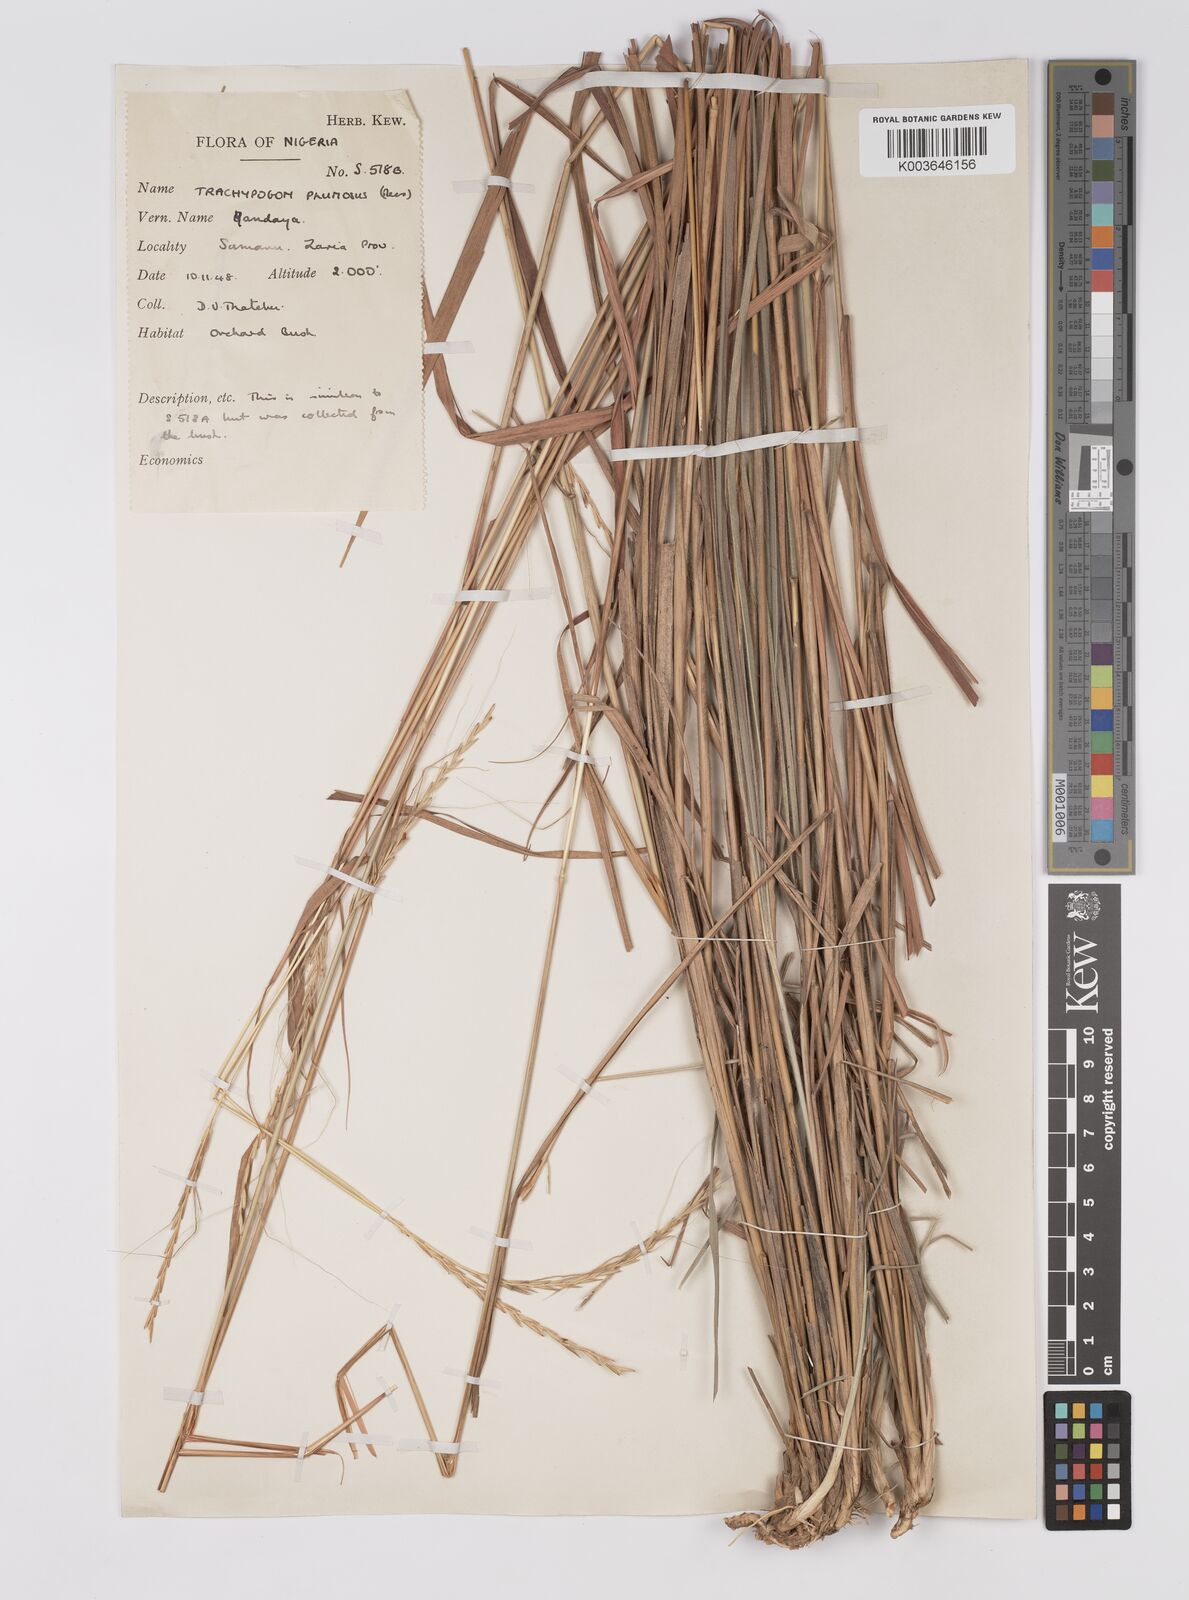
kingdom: Plantae
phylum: Tracheophyta
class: Liliopsida
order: Poales
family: Poaceae
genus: Trachypogon
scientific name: Trachypogon spicatus
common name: Crinkle-awn
